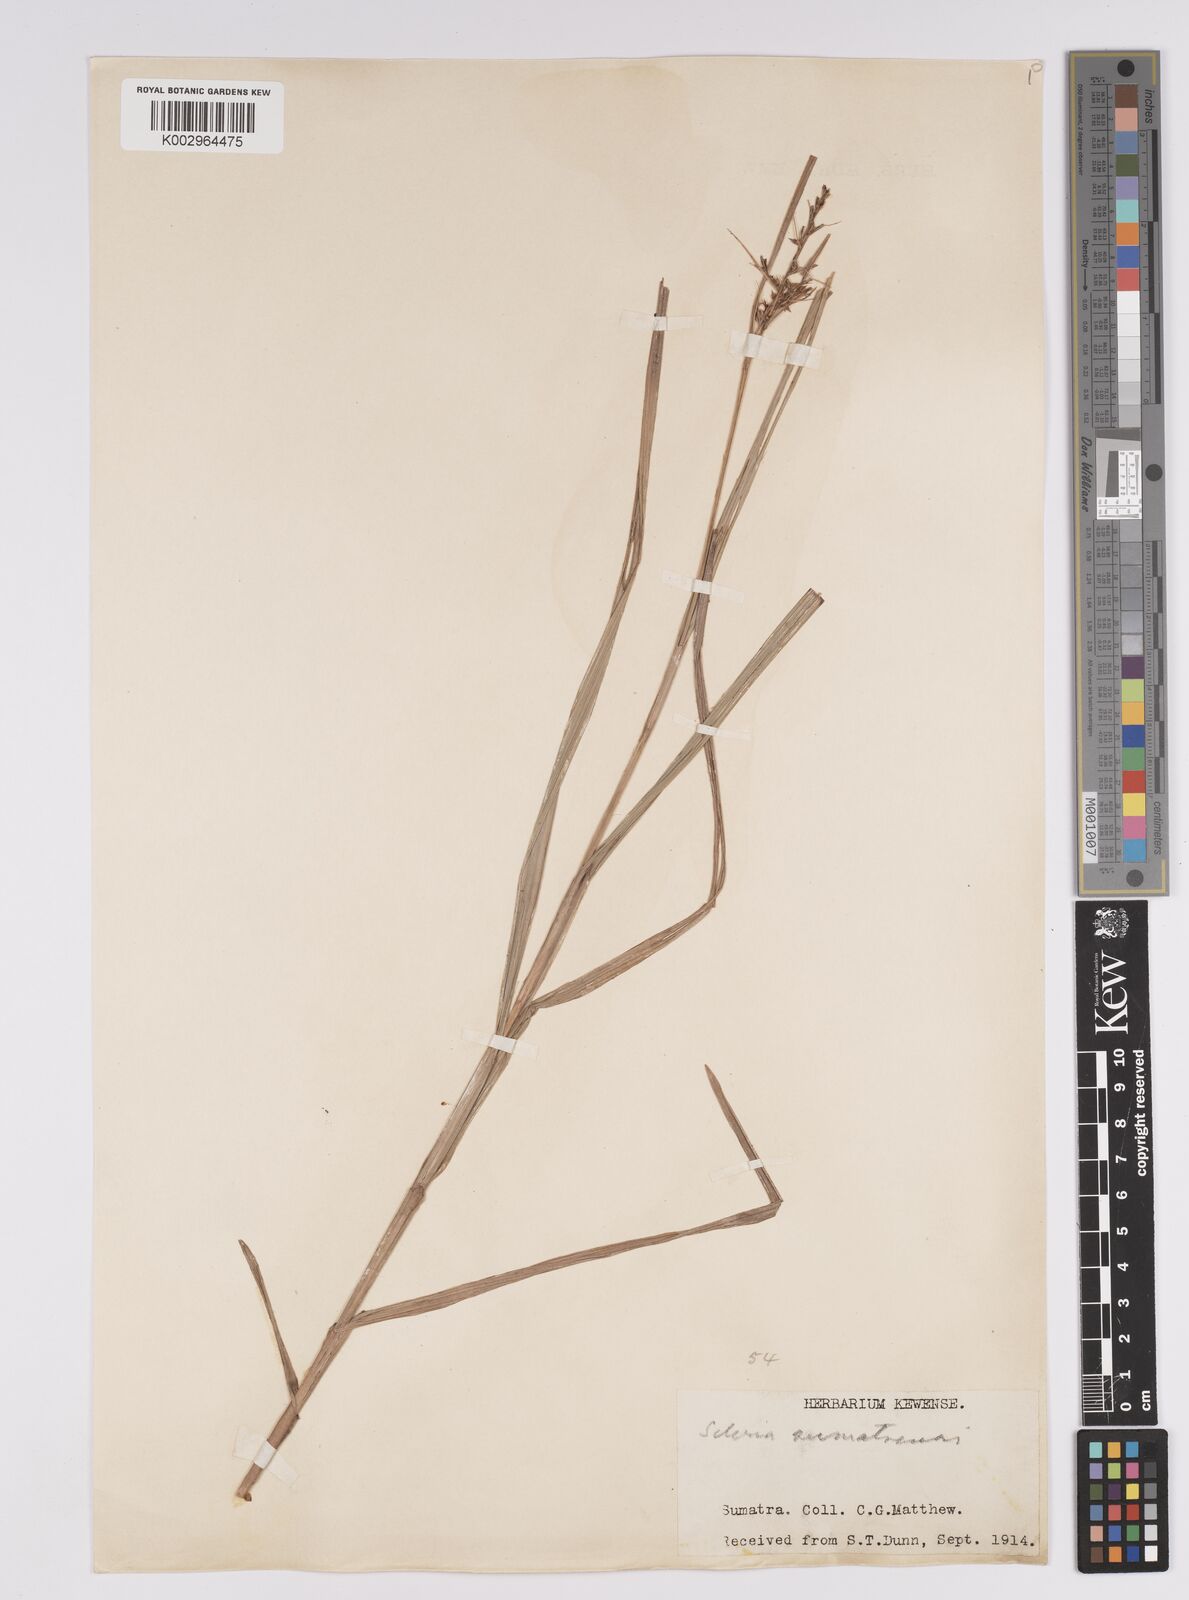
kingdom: Plantae
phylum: Tracheophyta
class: Liliopsida
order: Poales
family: Cyperaceae
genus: Scleria
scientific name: Scleria sumatrensis
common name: Sumatran scleria
